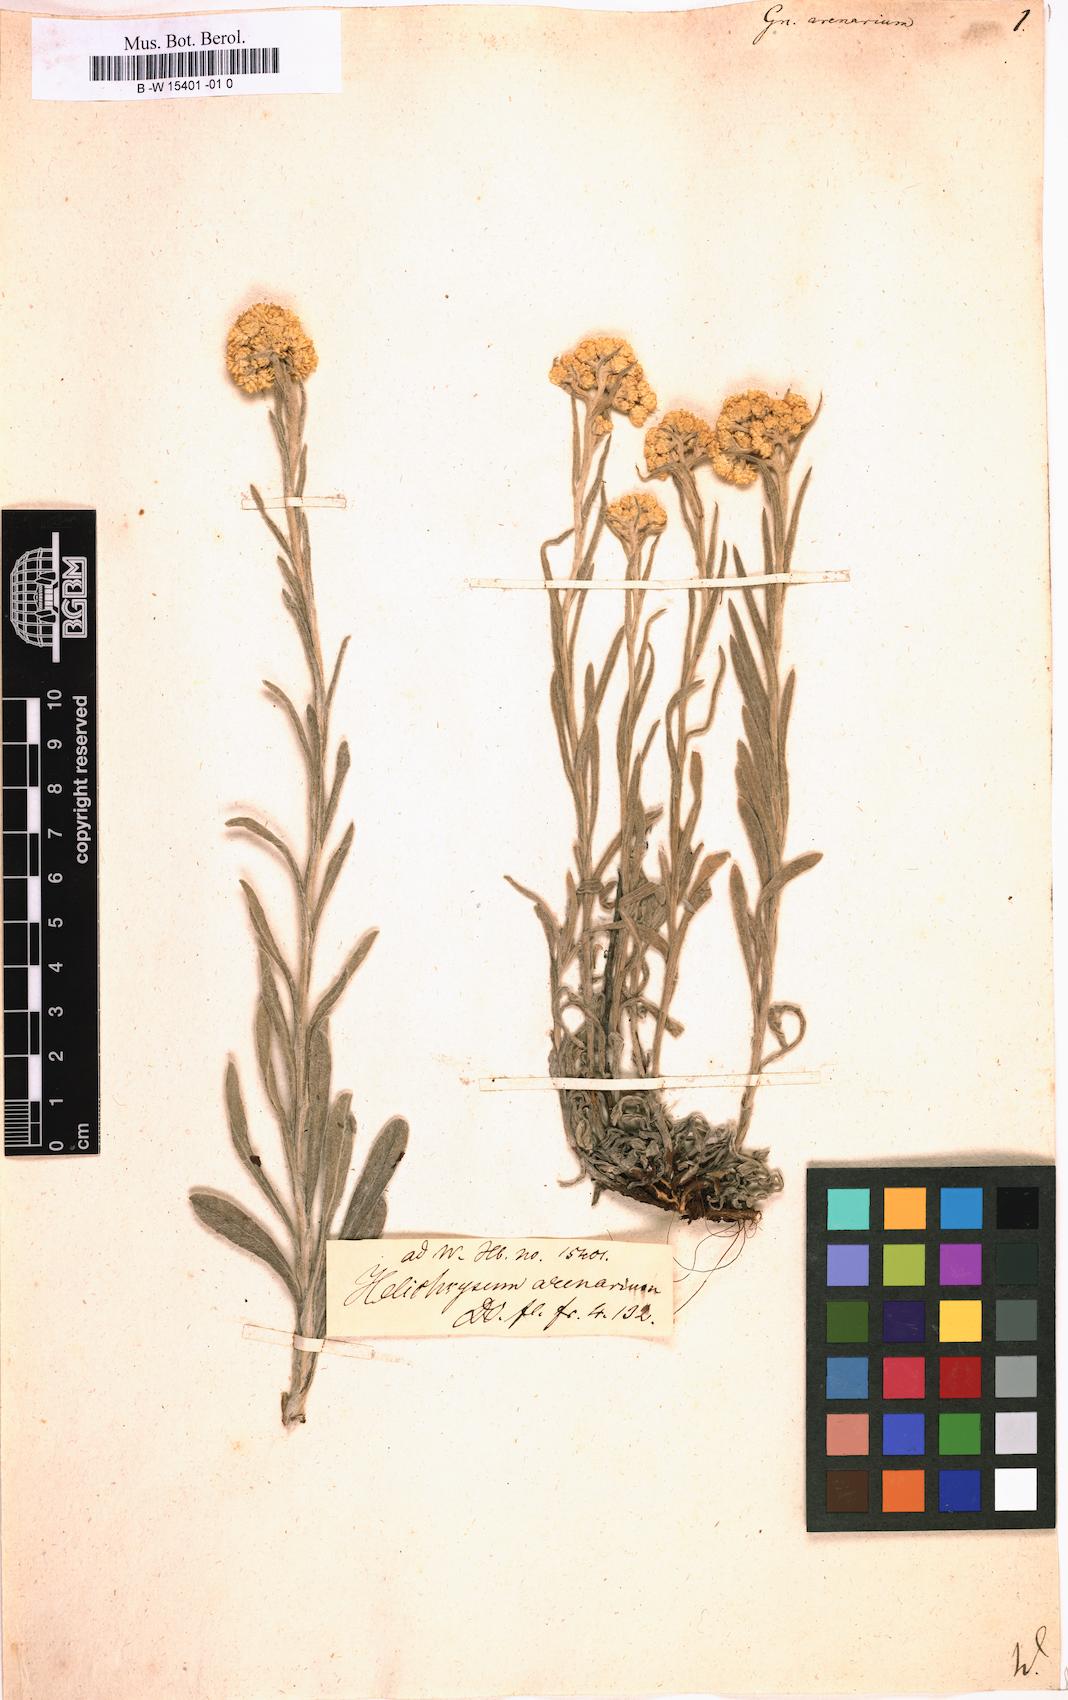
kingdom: Plantae
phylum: Tracheophyta
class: Magnoliopsida
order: Asterales
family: Asteraceae
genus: Helichrysum
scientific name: Helichrysum arenarium
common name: Strawflower
